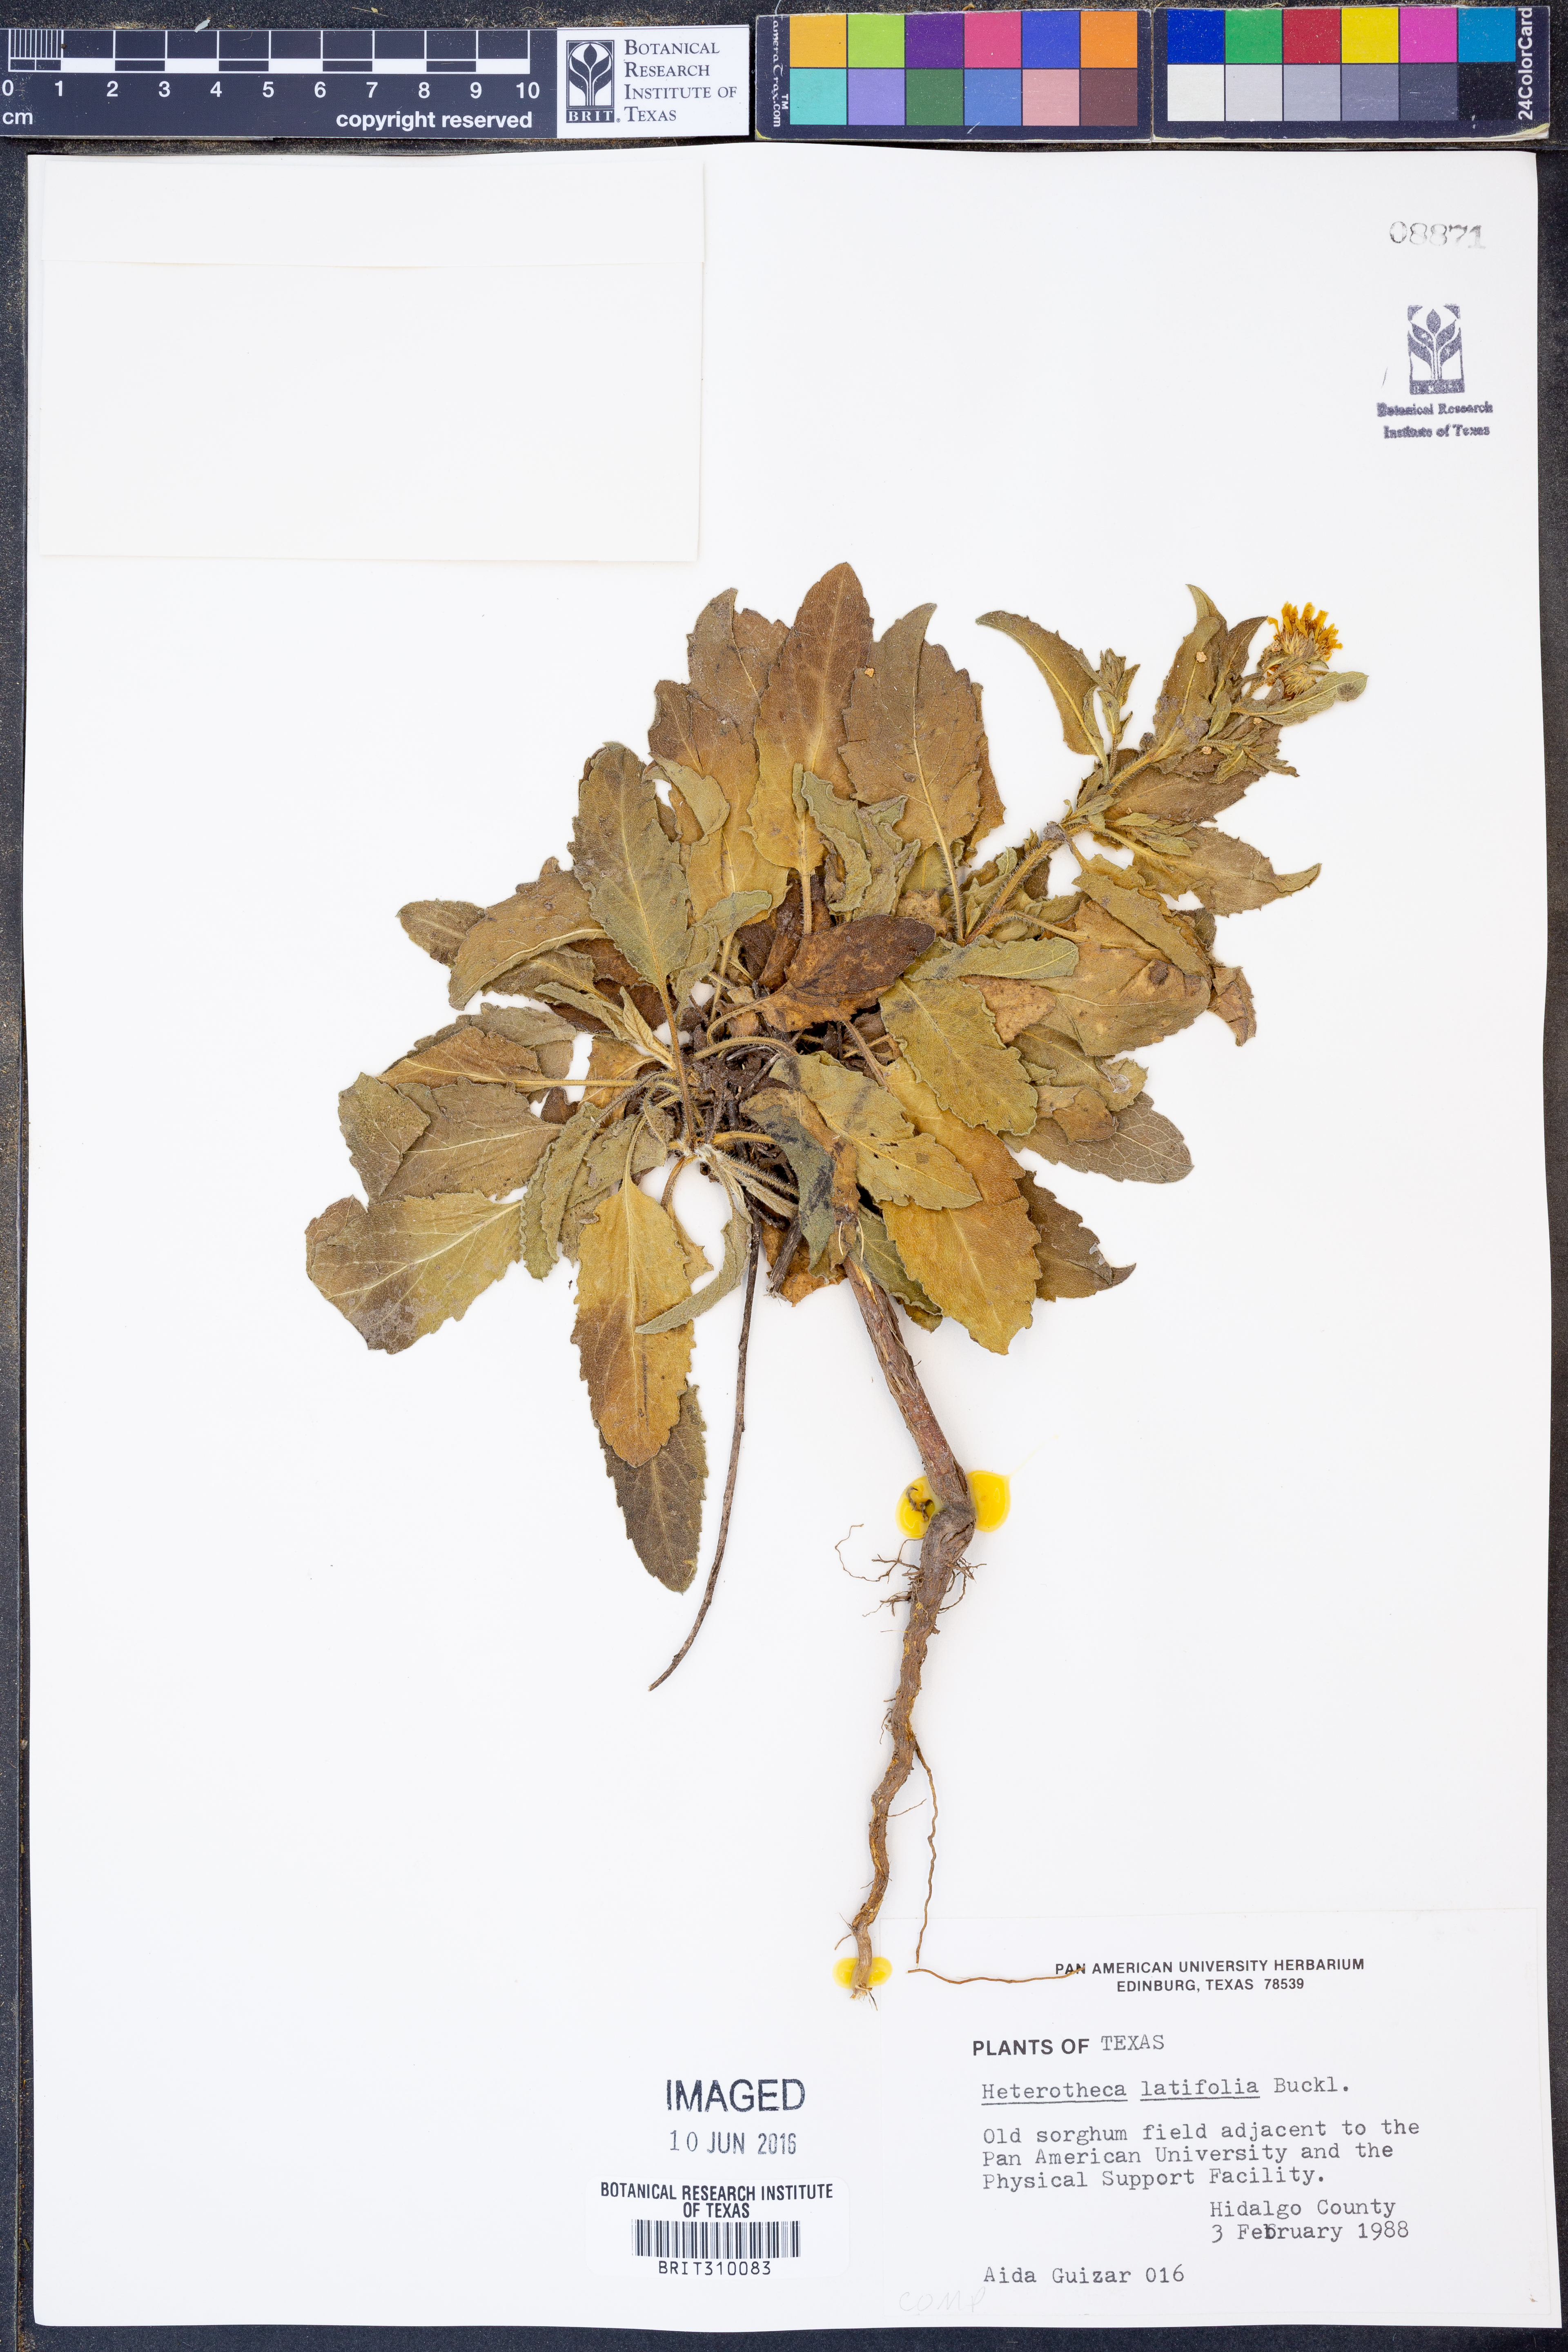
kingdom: Plantae
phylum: Tracheophyta
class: Magnoliopsida
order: Asterales
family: Asteraceae
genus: Heterotheca
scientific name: Heterotheca subaxillaris
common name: Camphorweed
